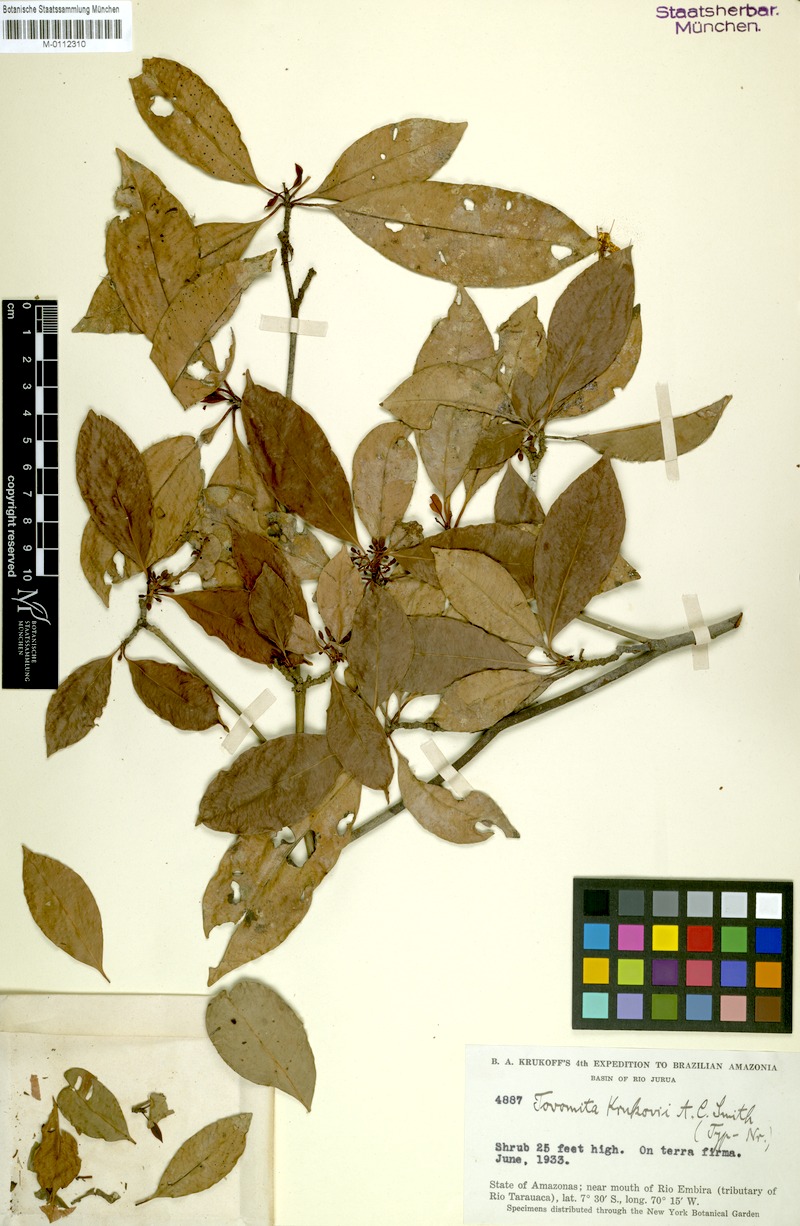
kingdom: Plantae
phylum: Tracheophyta
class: Magnoliopsida
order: Malpighiales
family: Clusiaceae
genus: Tovomita
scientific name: Tovomita krukovii
